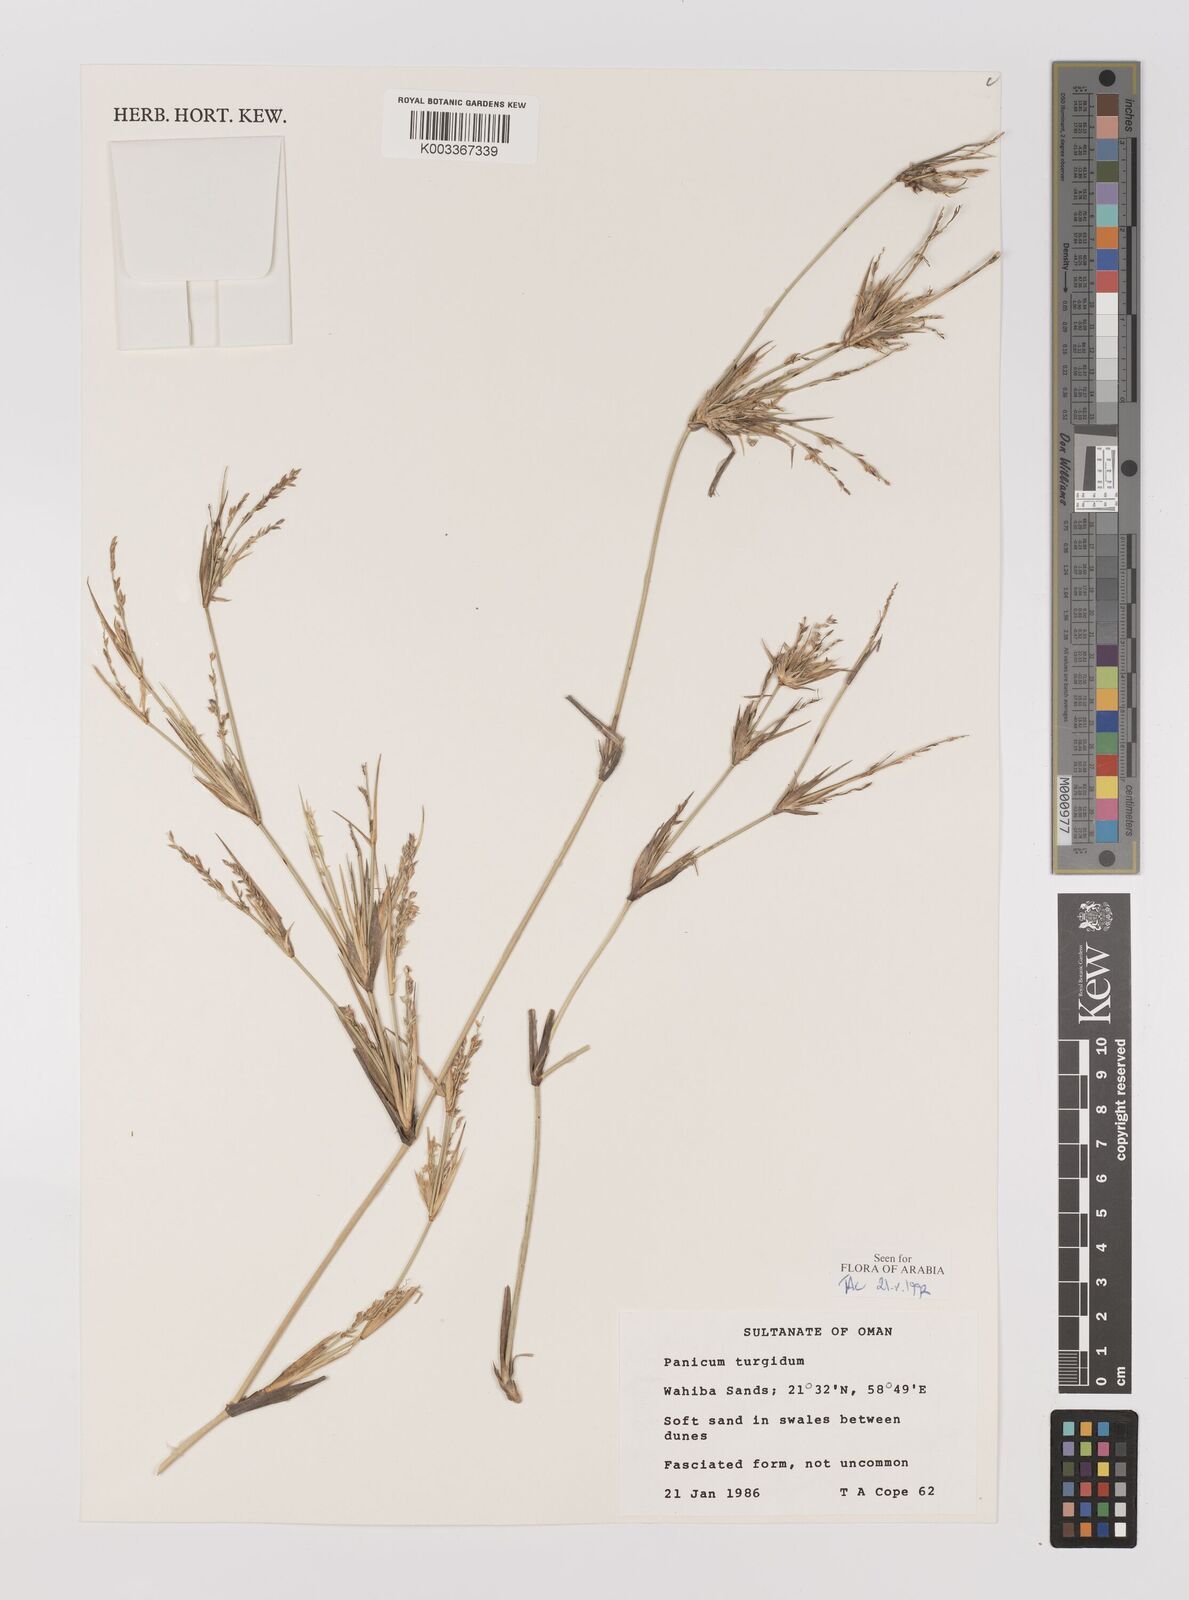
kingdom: Plantae
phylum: Tracheophyta
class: Liliopsida
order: Poales
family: Poaceae
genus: Panicum
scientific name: Panicum turgidum
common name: Desert grass
